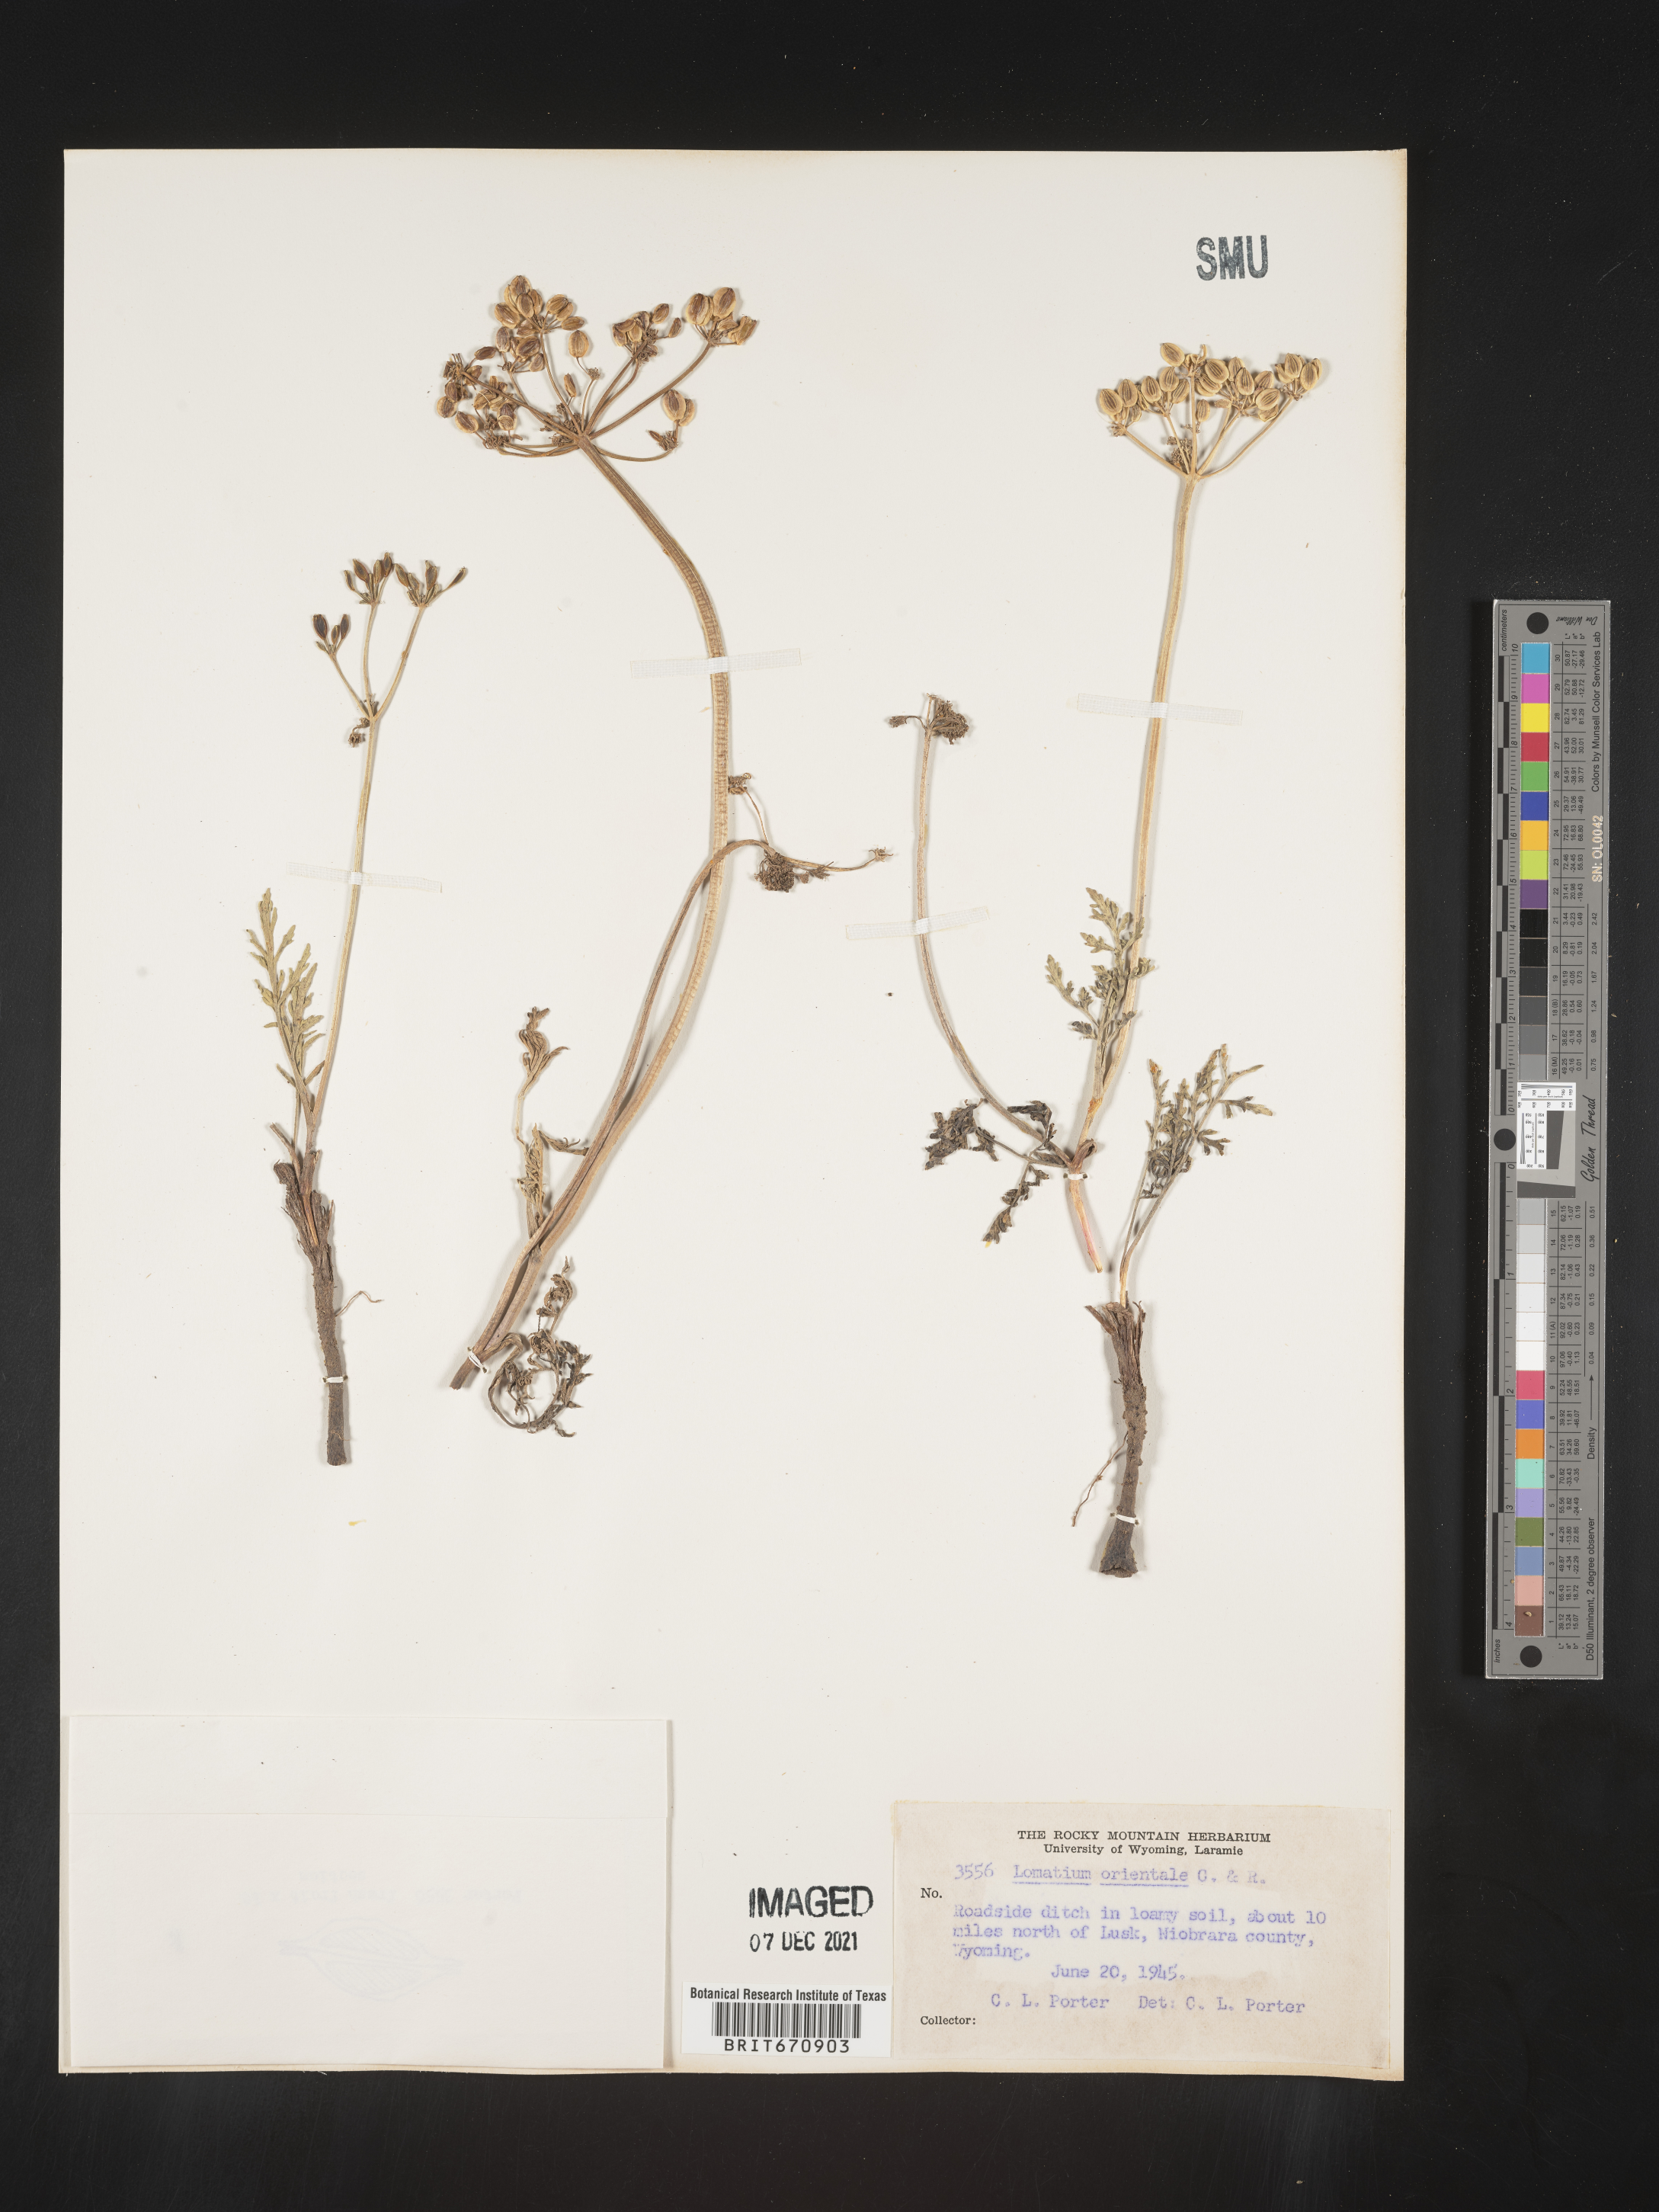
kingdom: Plantae
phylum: Tracheophyta
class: Magnoliopsida
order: Apiales
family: Apiaceae
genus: Lomatium
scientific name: Lomatium
